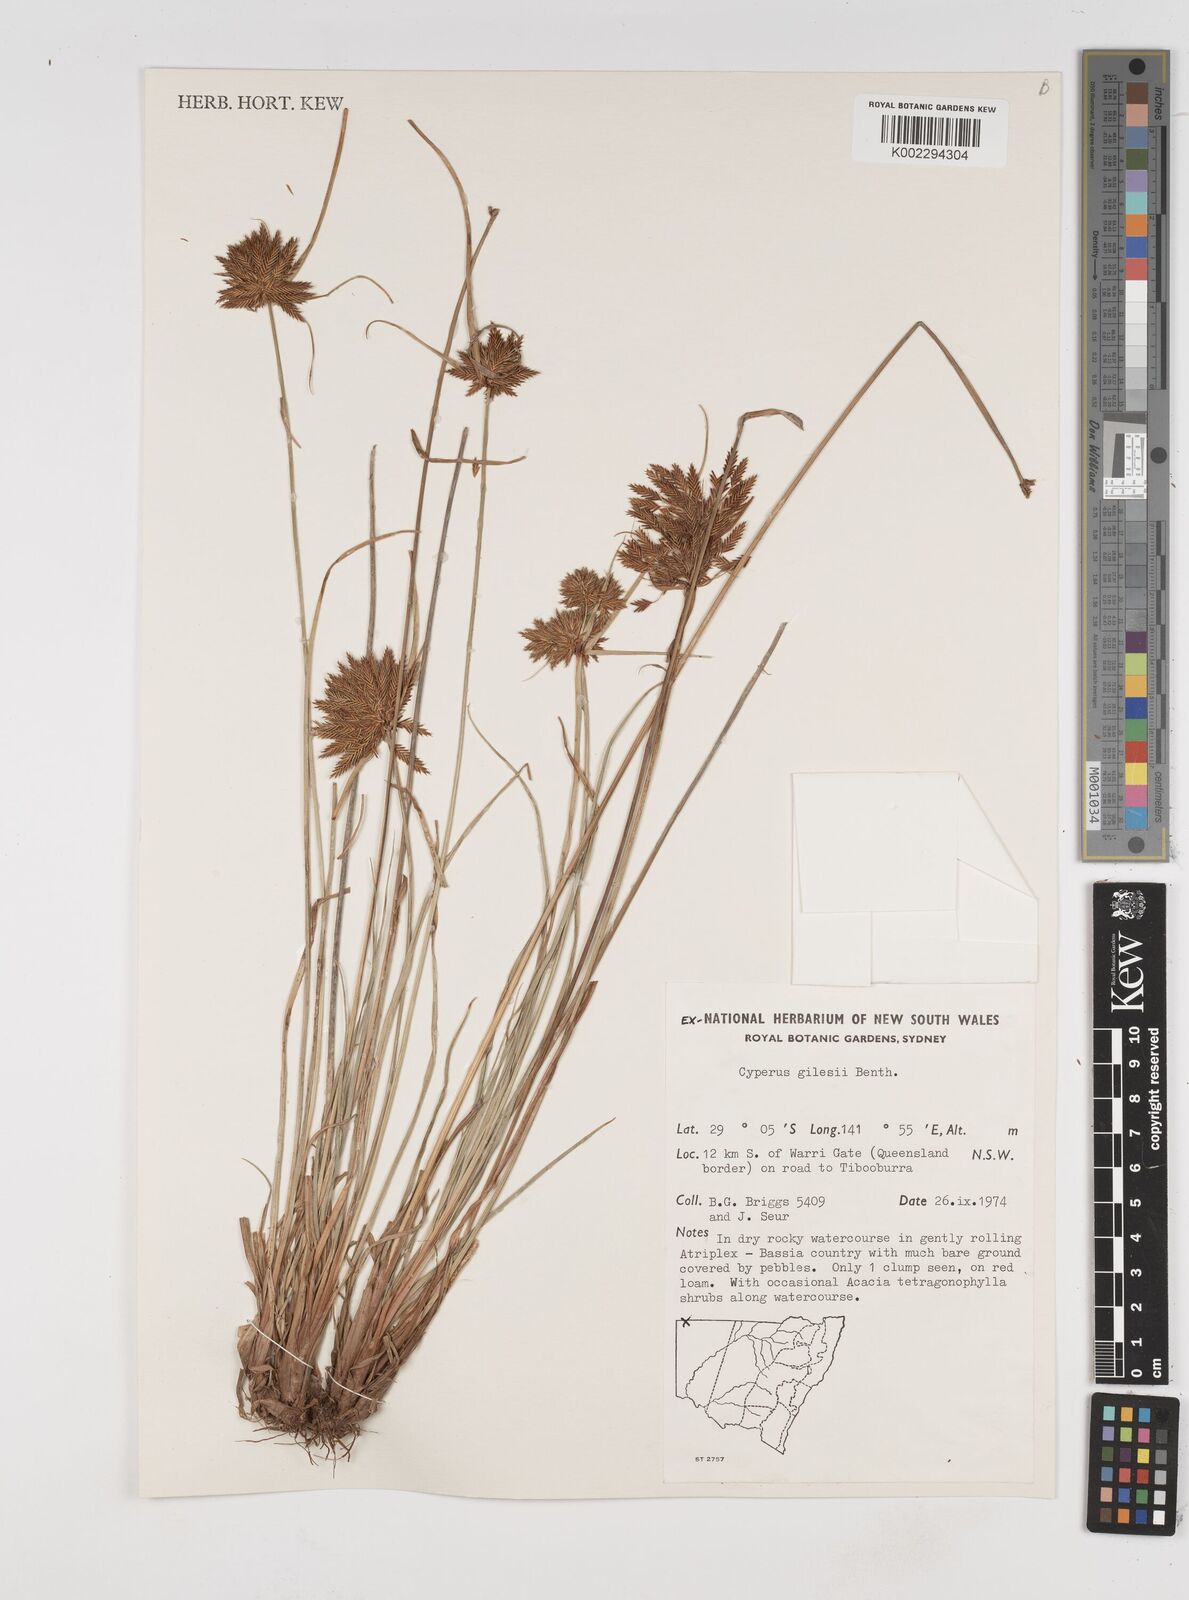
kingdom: Plantae
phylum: Tracheophyta
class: Liliopsida
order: Poales
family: Cyperaceae
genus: Cyperus
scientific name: Cyperus gilesii
